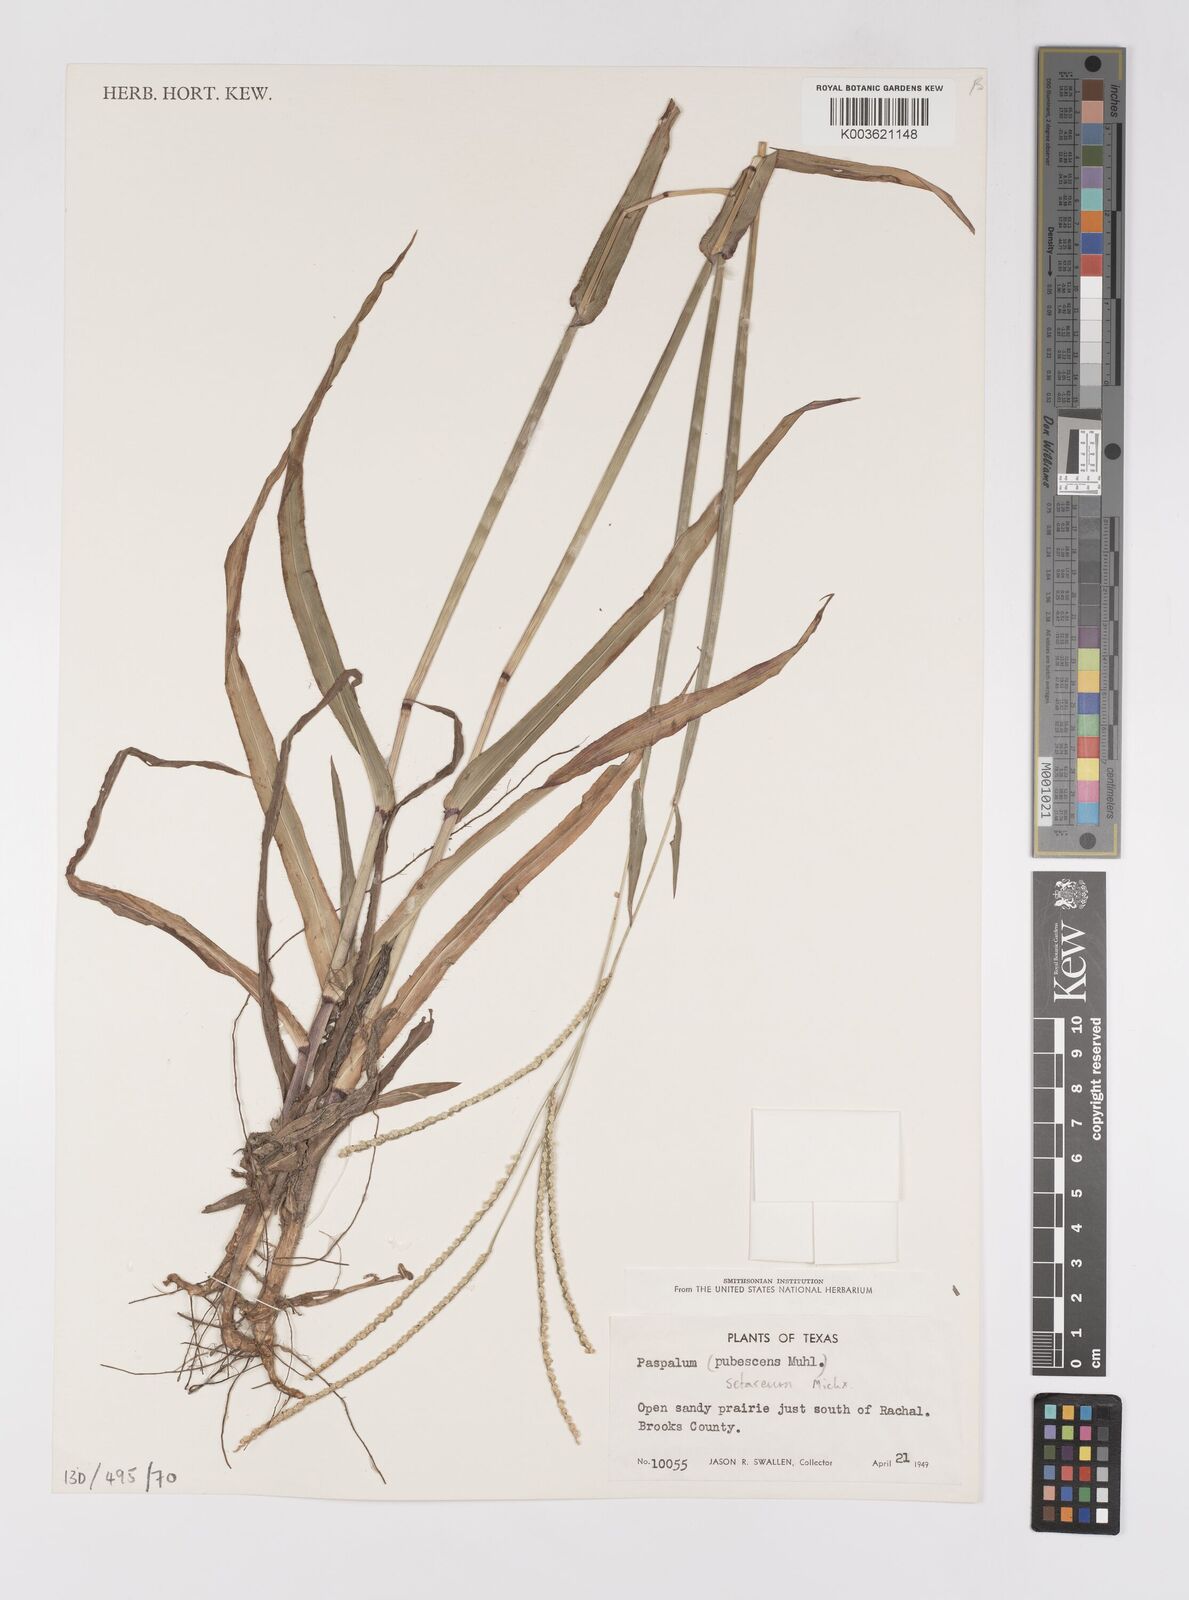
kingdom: Plantae
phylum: Tracheophyta
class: Liliopsida
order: Poales
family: Poaceae
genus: Paspalum
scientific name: Paspalum setaceum
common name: Slender paspalum
